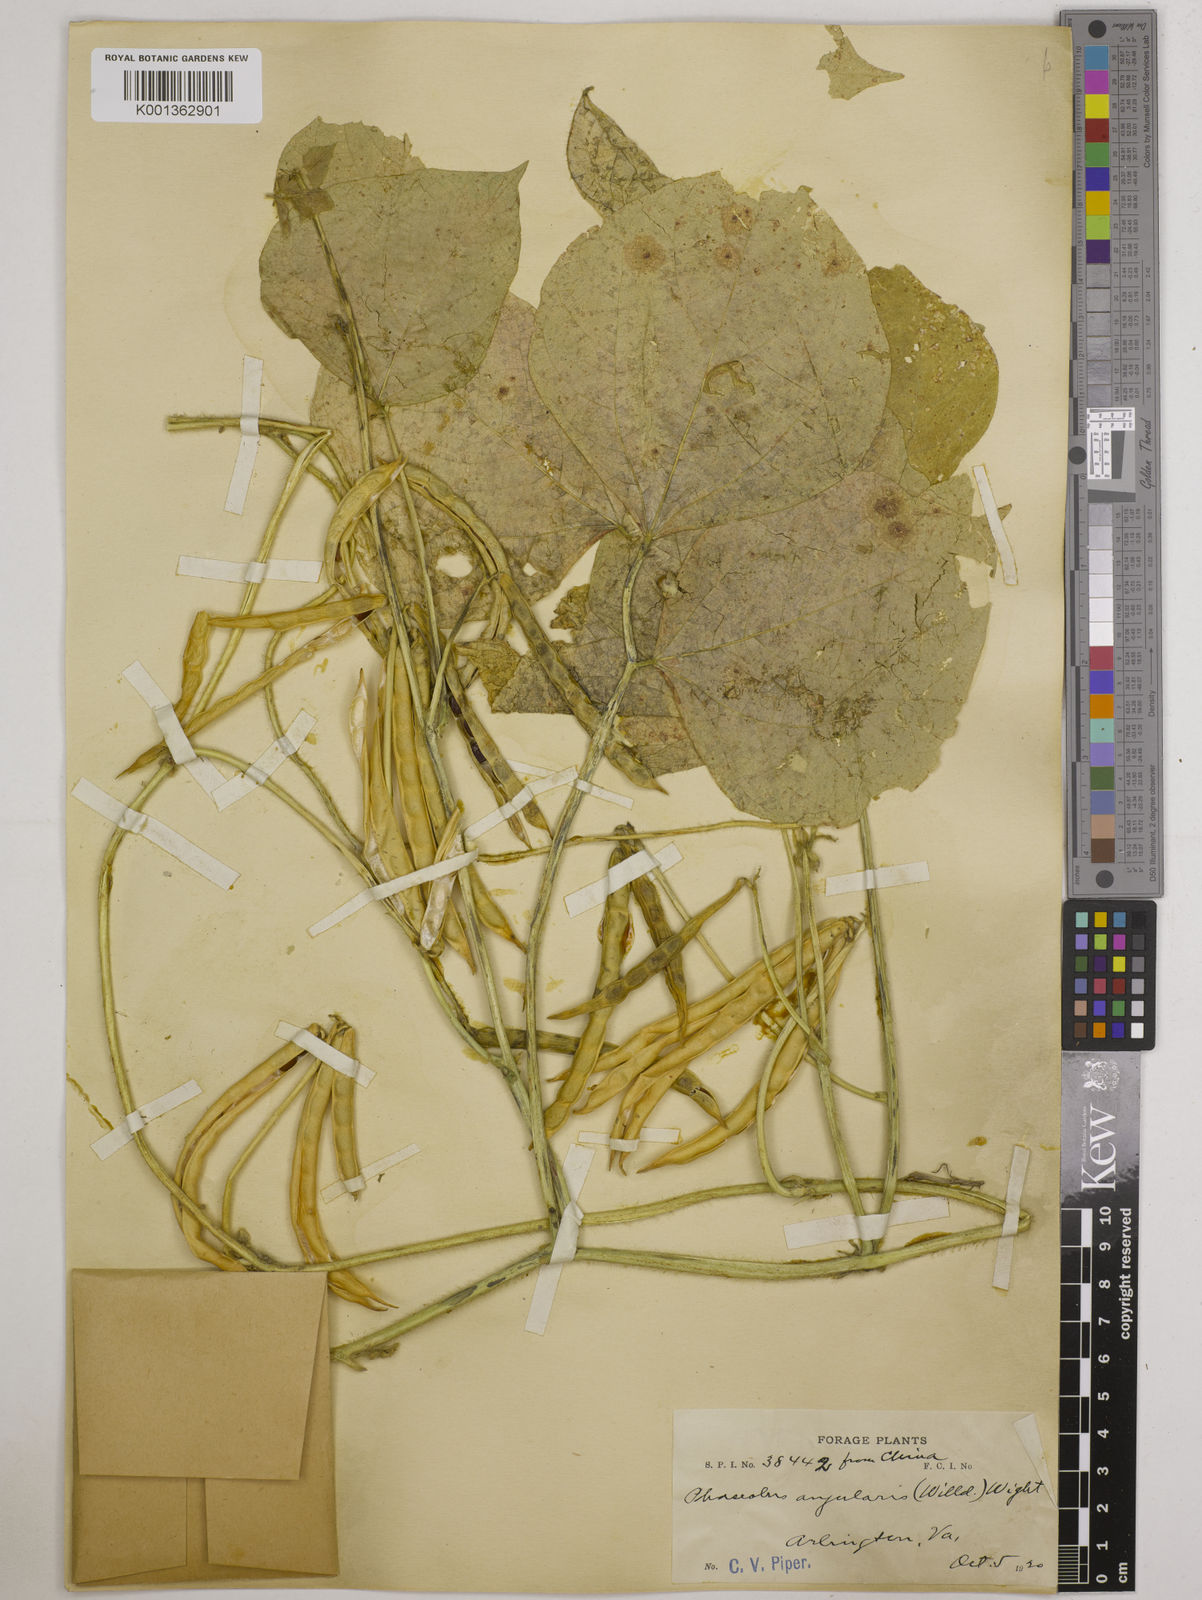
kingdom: Plantae
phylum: Tracheophyta
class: Magnoliopsida
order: Fabales
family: Fabaceae
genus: Vigna
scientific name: Vigna angularis
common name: Adzuki bean
